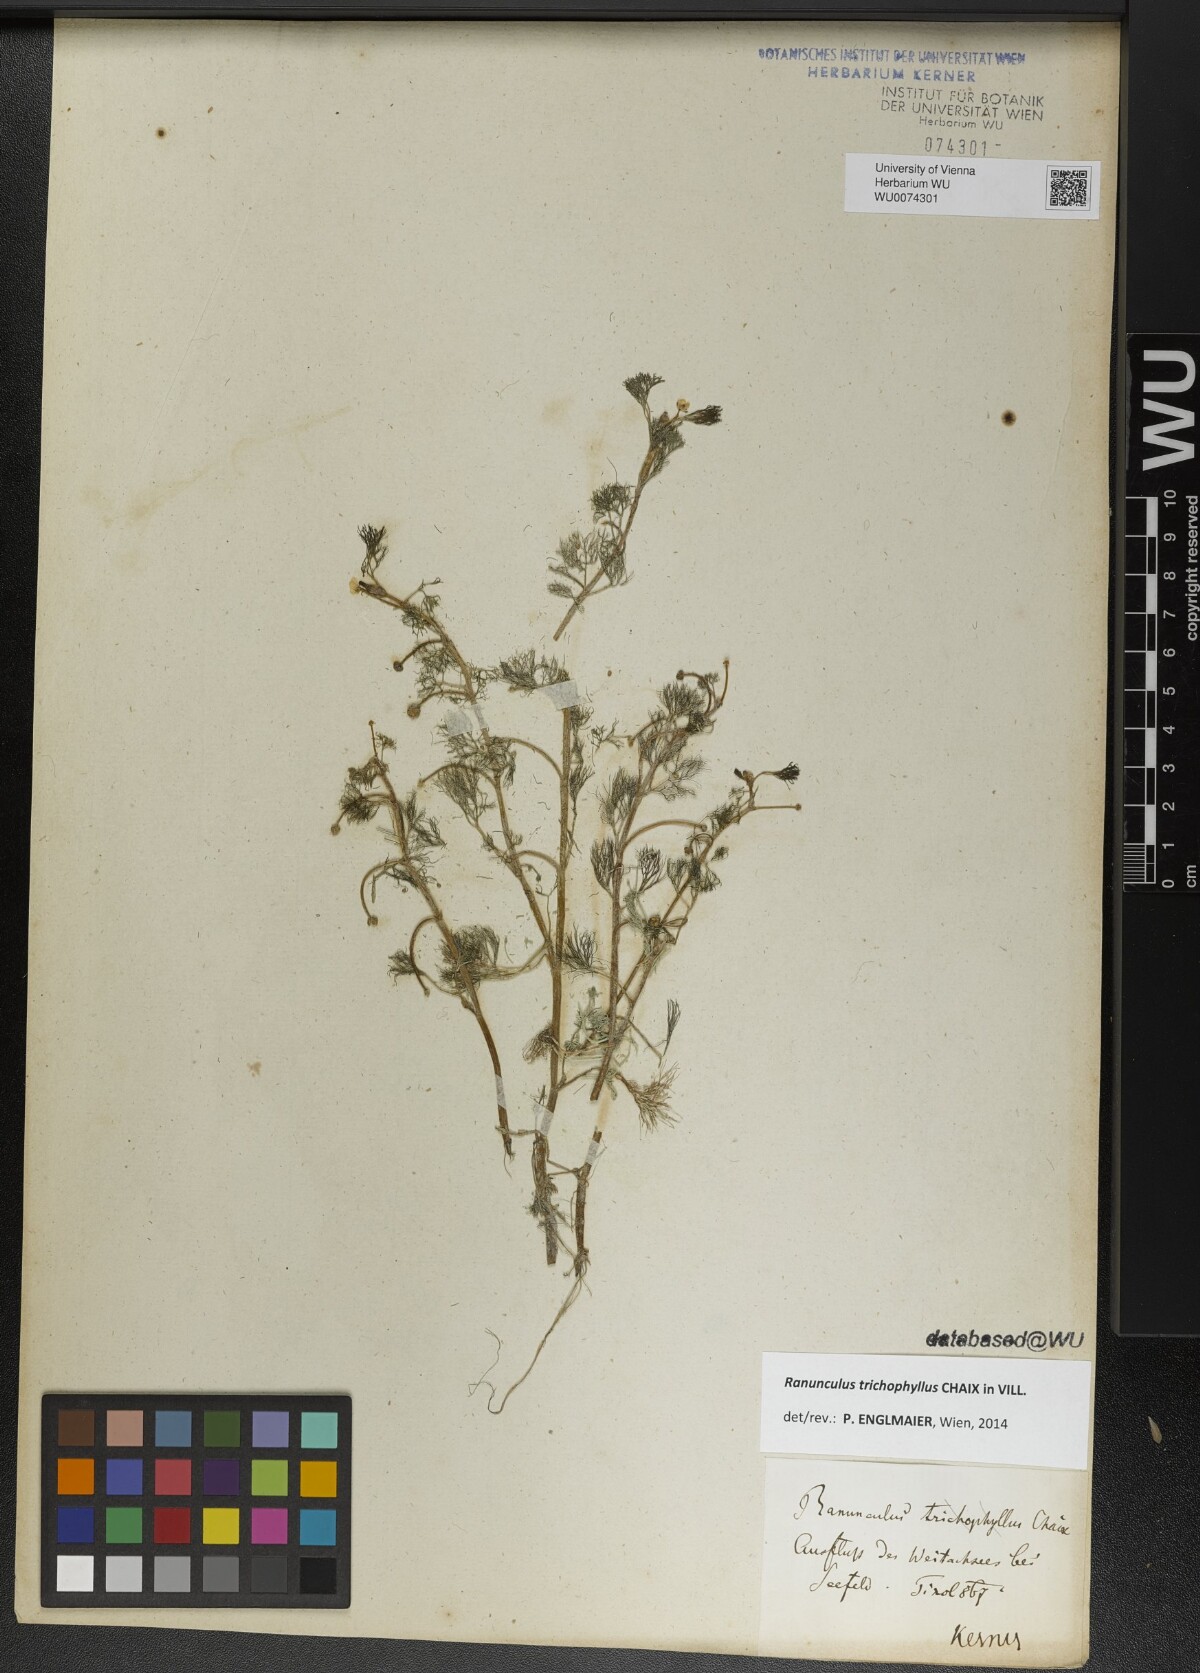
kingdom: Plantae
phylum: Tracheophyta
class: Magnoliopsida
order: Ranunculales
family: Ranunculaceae
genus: Ranunculus
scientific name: Ranunculus trichophyllus
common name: Thread-leaved water-crowfoot
